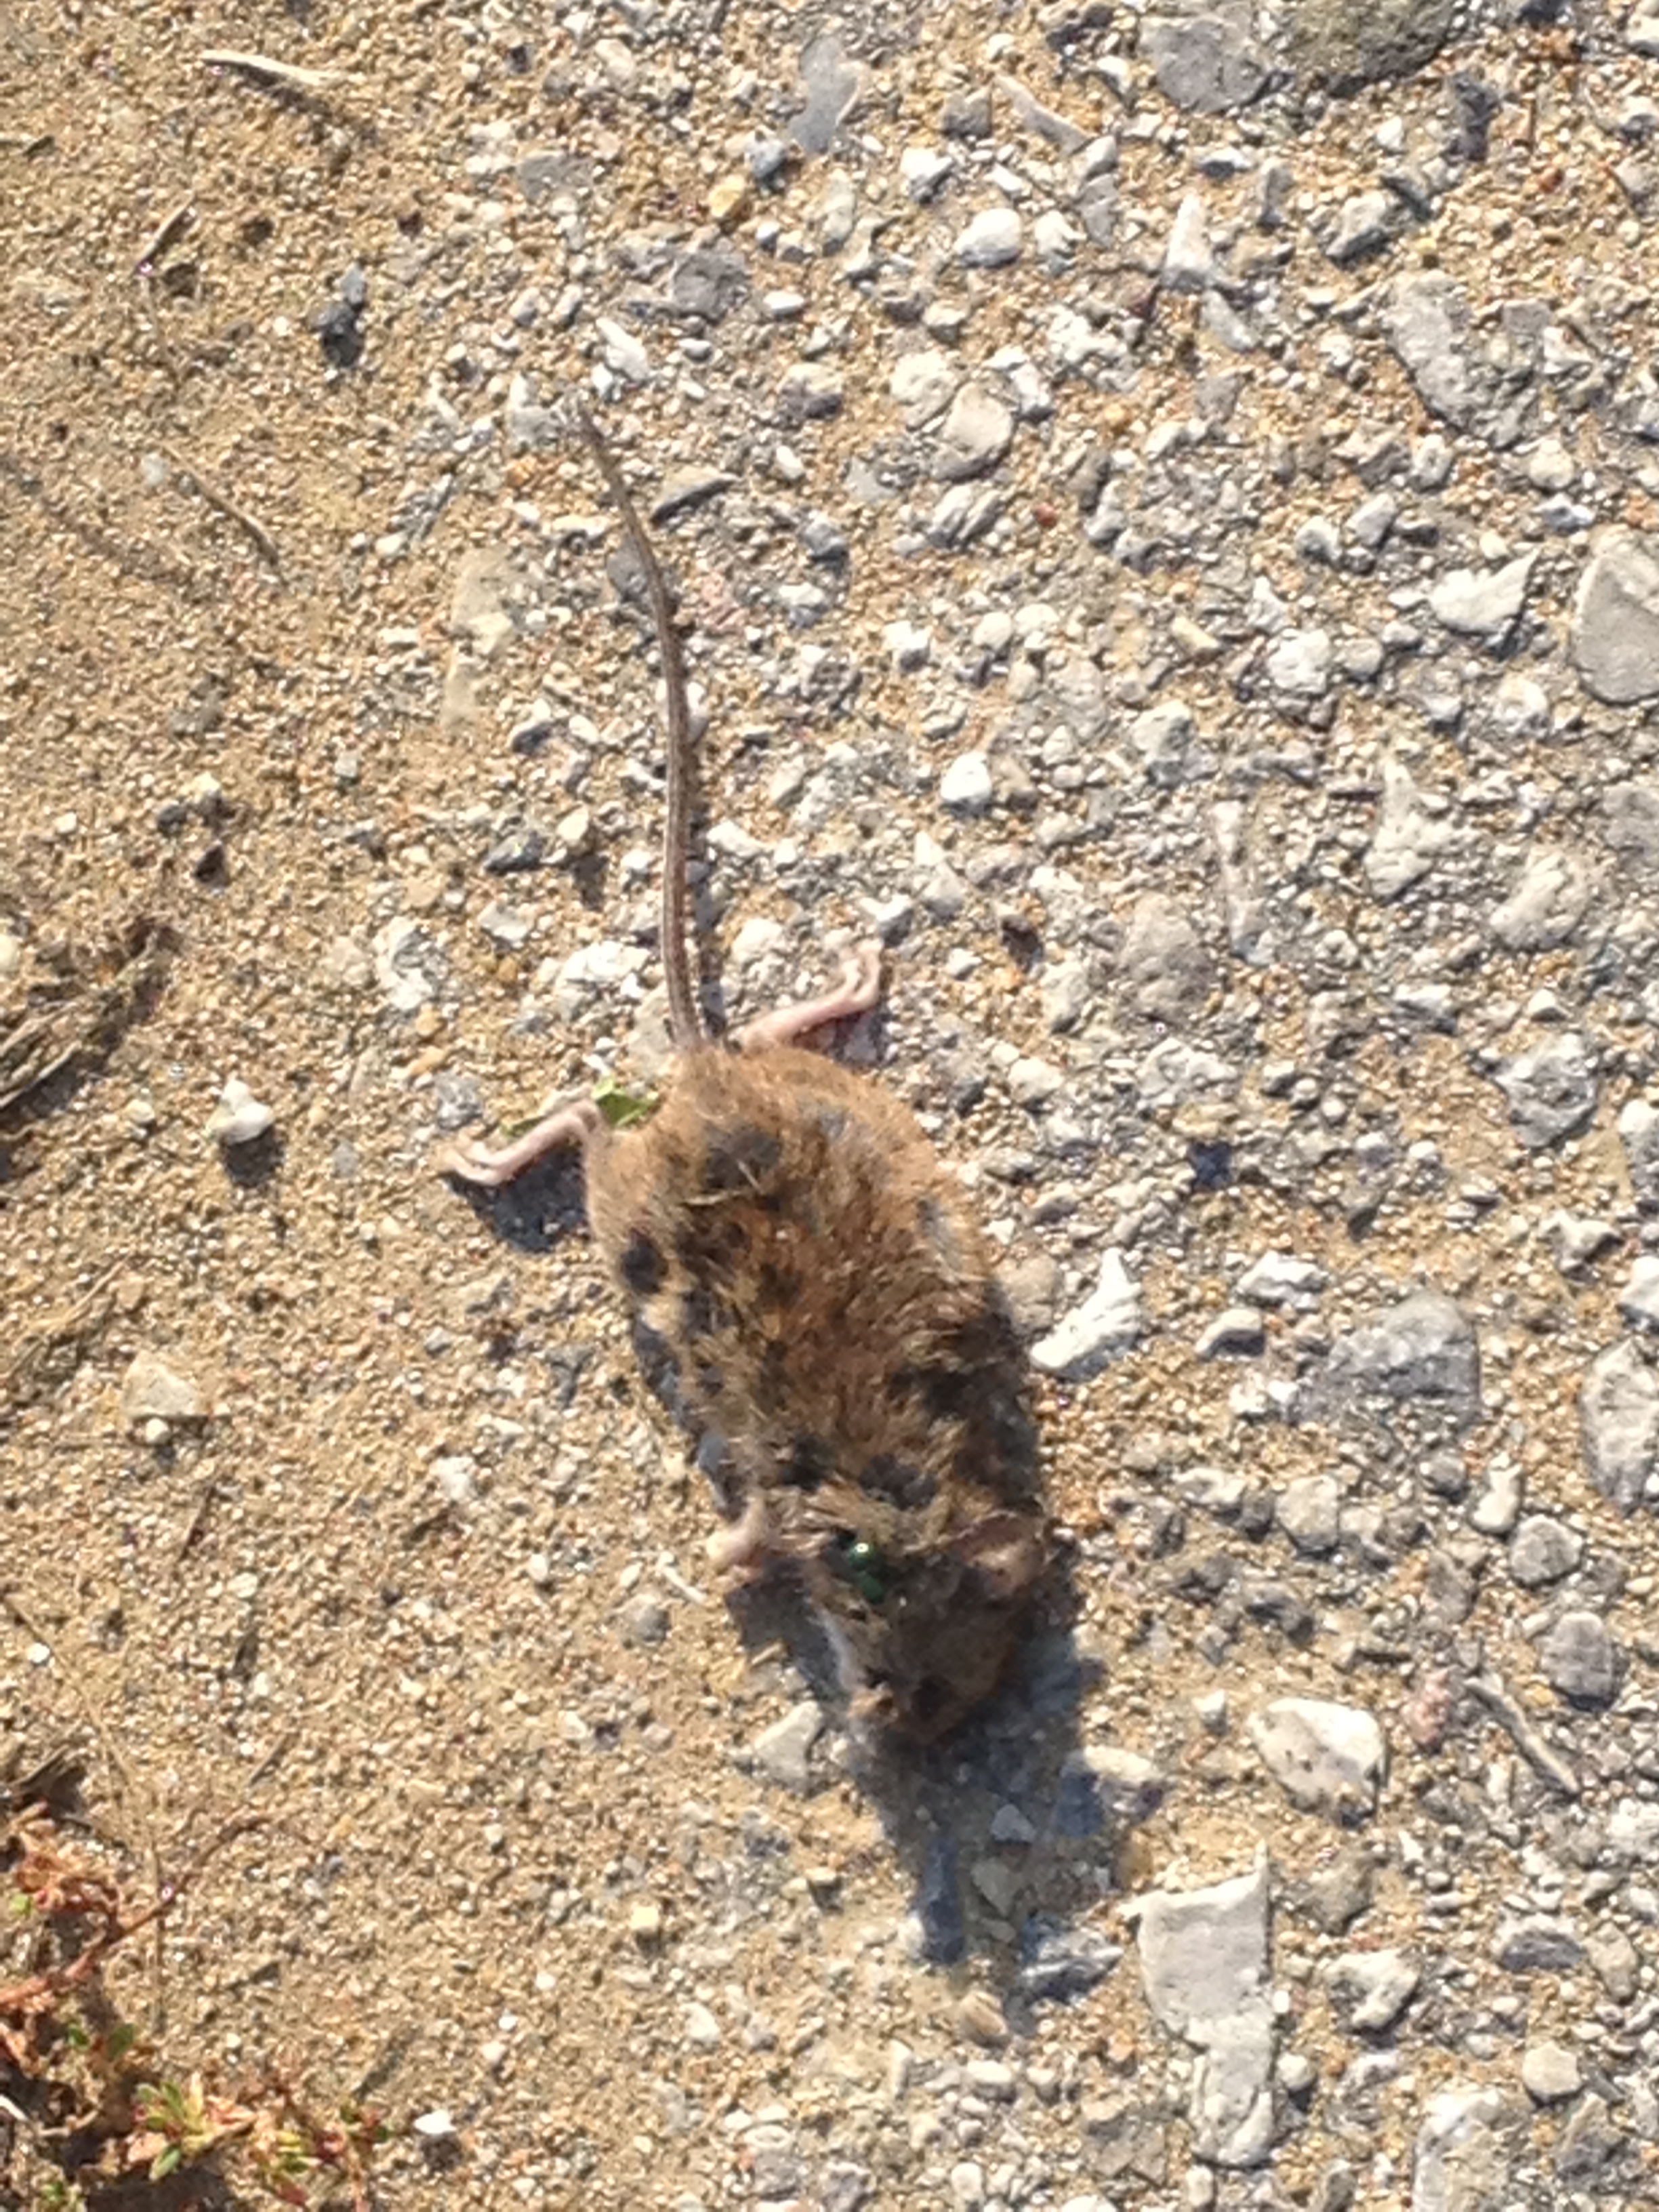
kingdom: Animalia
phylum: Chordata
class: Mammalia
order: Rodentia
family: Muridae
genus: Apodemus
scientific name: Apodemus
